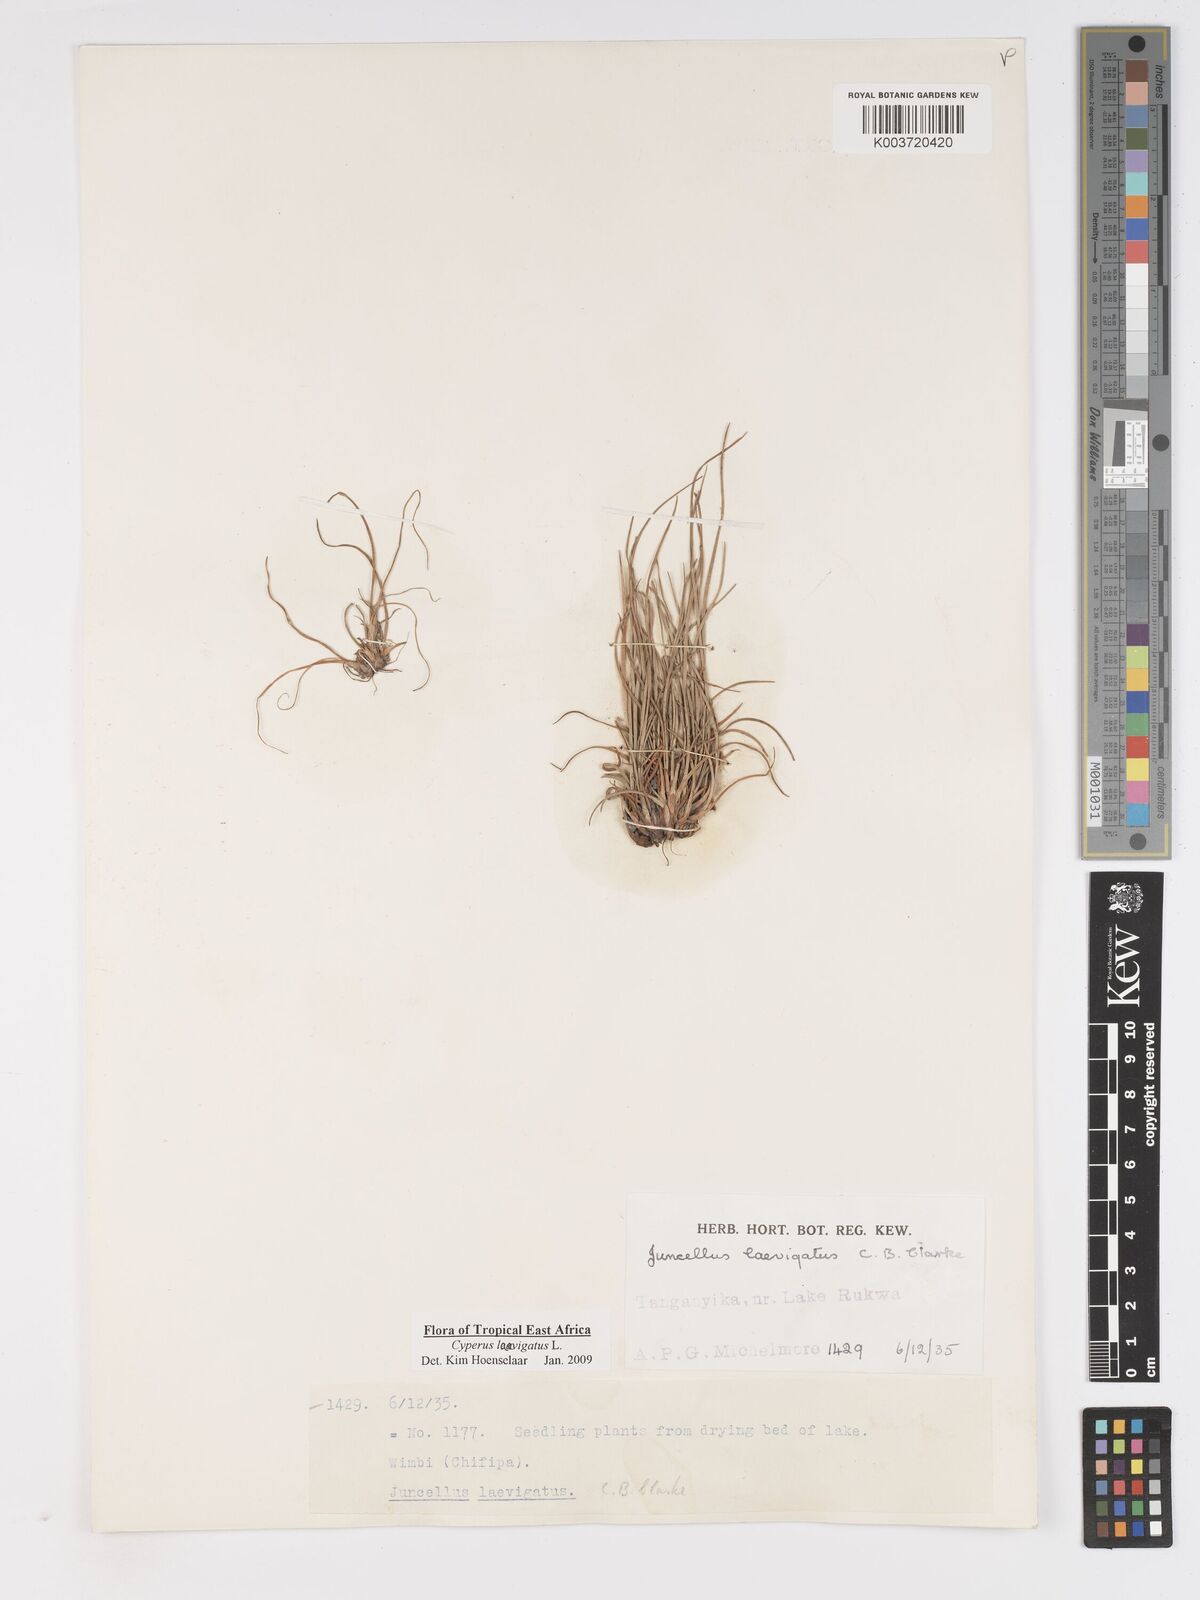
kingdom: Plantae
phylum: Tracheophyta
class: Liliopsida
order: Poales
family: Cyperaceae
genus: Cyperus
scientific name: Cyperus laevigatus
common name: Smooth flat sedge
